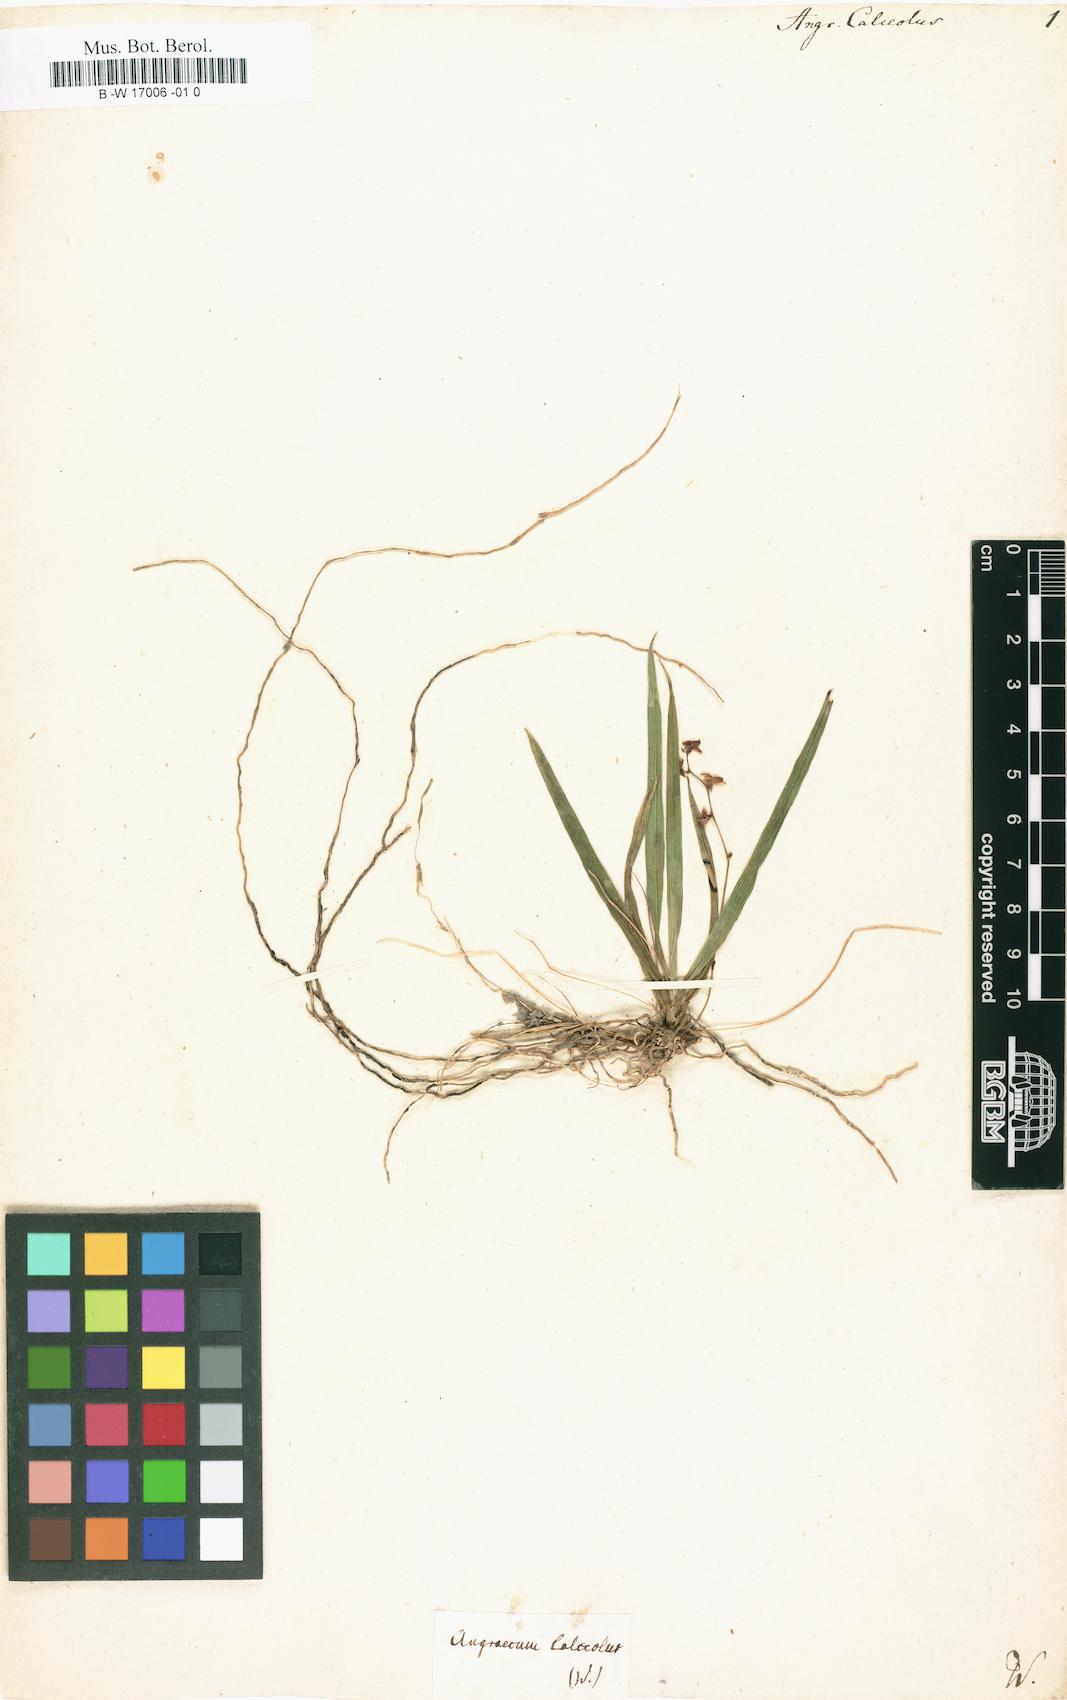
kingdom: Plantae
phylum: Tracheophyta
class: Liliopsida
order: Asparagales
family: Orchidaceae
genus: Angraecum
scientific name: Angraecum calceolus
